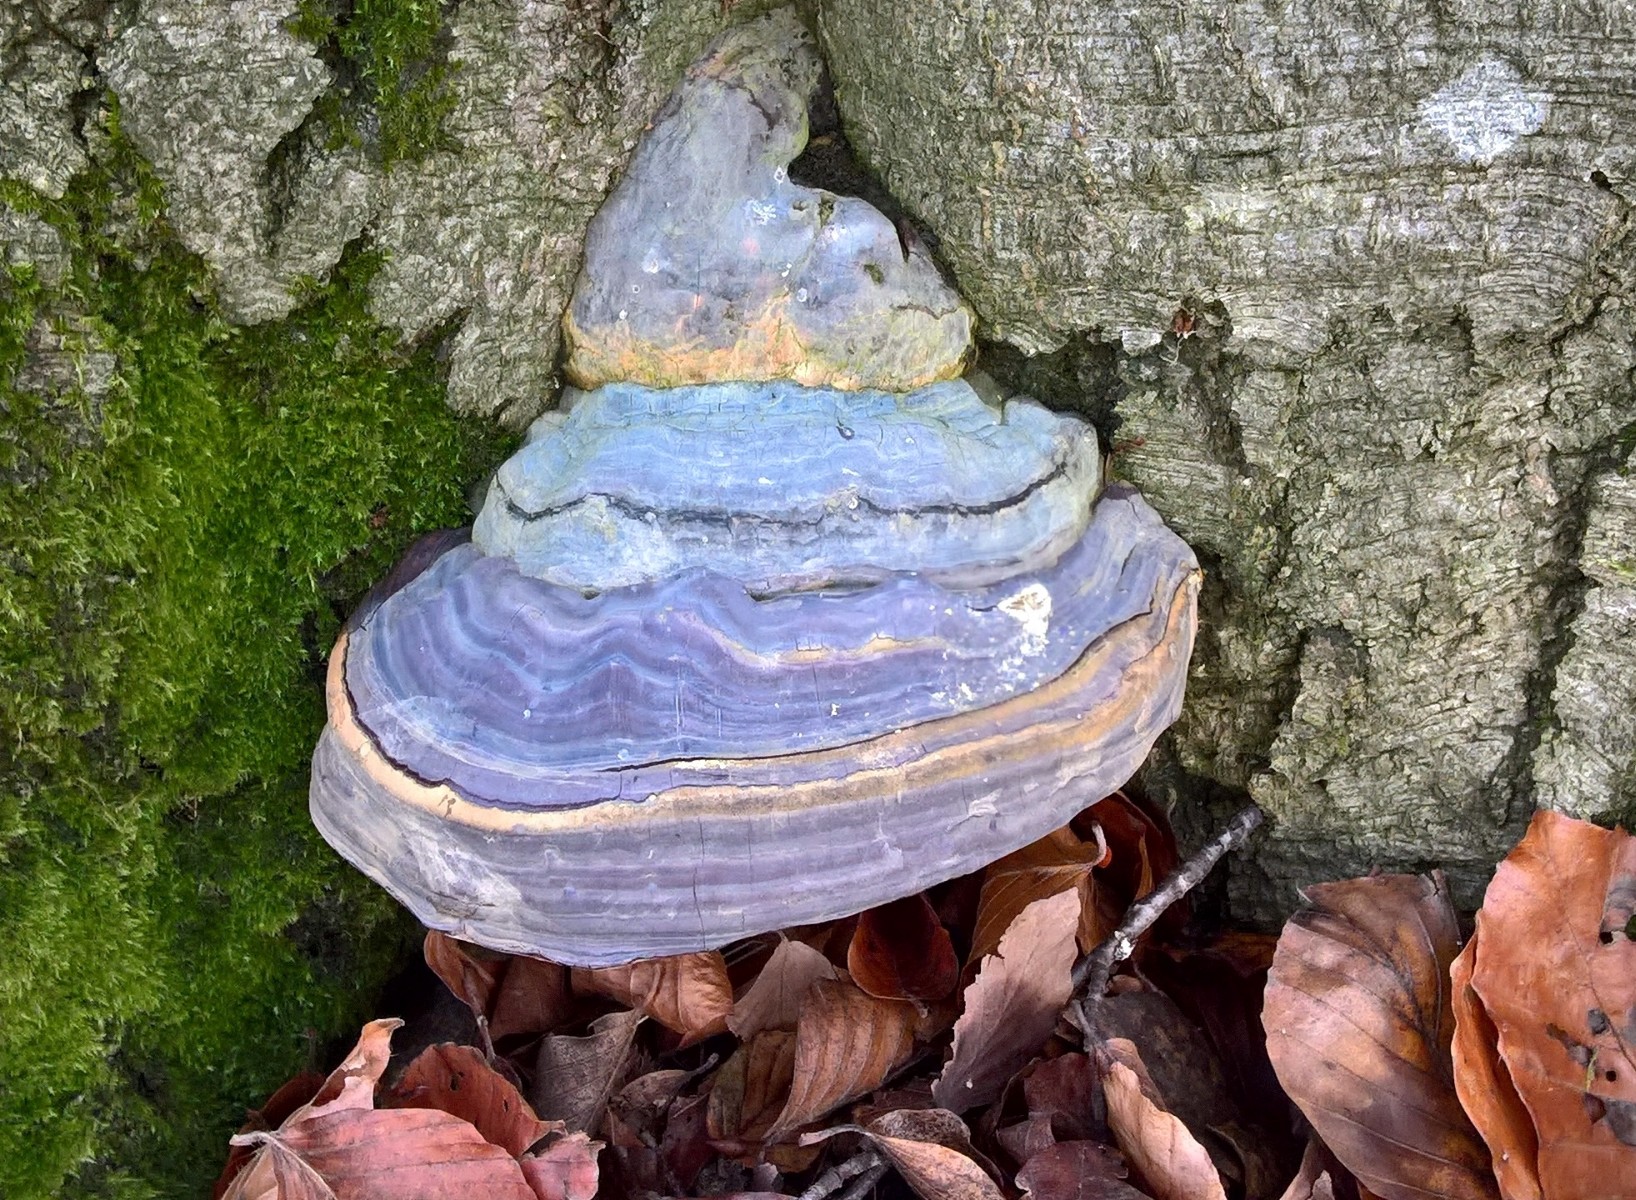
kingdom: Fungi
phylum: Basidiomycota
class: Agaricomycetes
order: Polyporales
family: Polyporaceae
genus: Ganoderma
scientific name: Ganoderma pfeifferi
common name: kobberrød lakporesvamp
